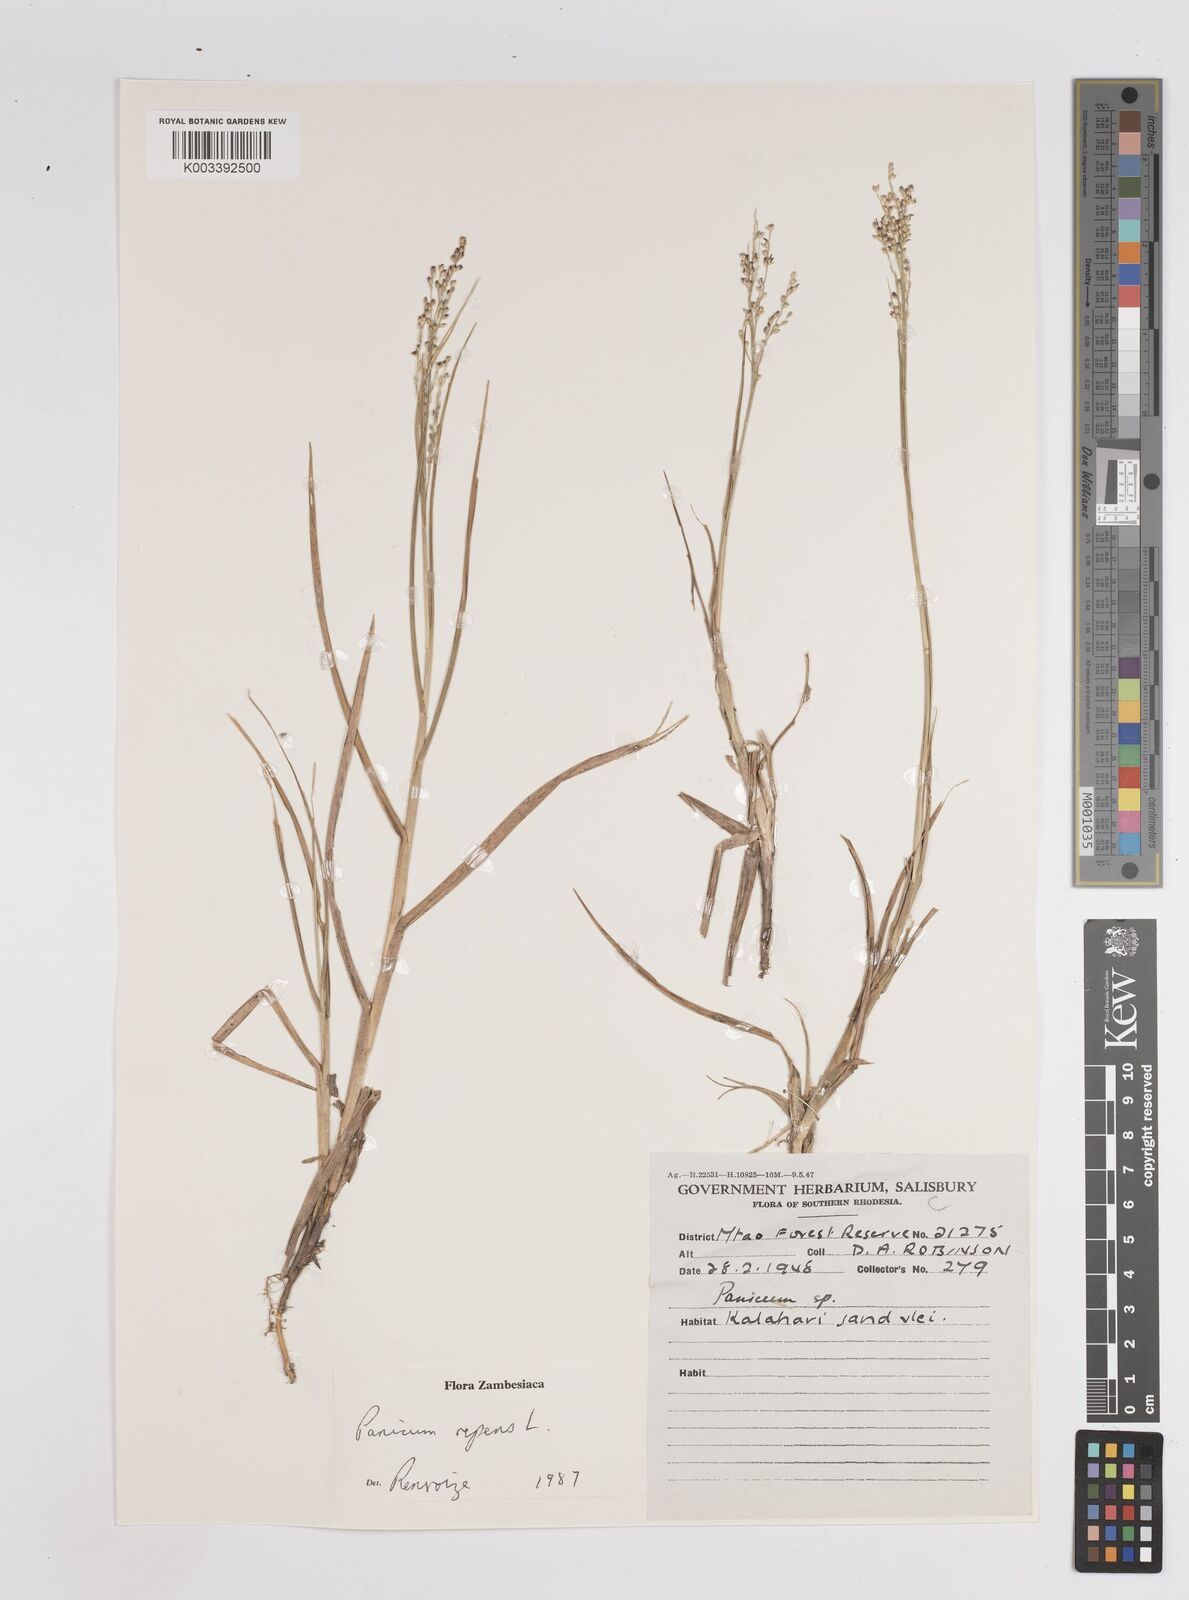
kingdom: Plantae
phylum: Tracheophyta
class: Liliopsida
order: Poales
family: Poaceae
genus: Panicum
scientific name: Panicum repens
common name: Torpedo grass
